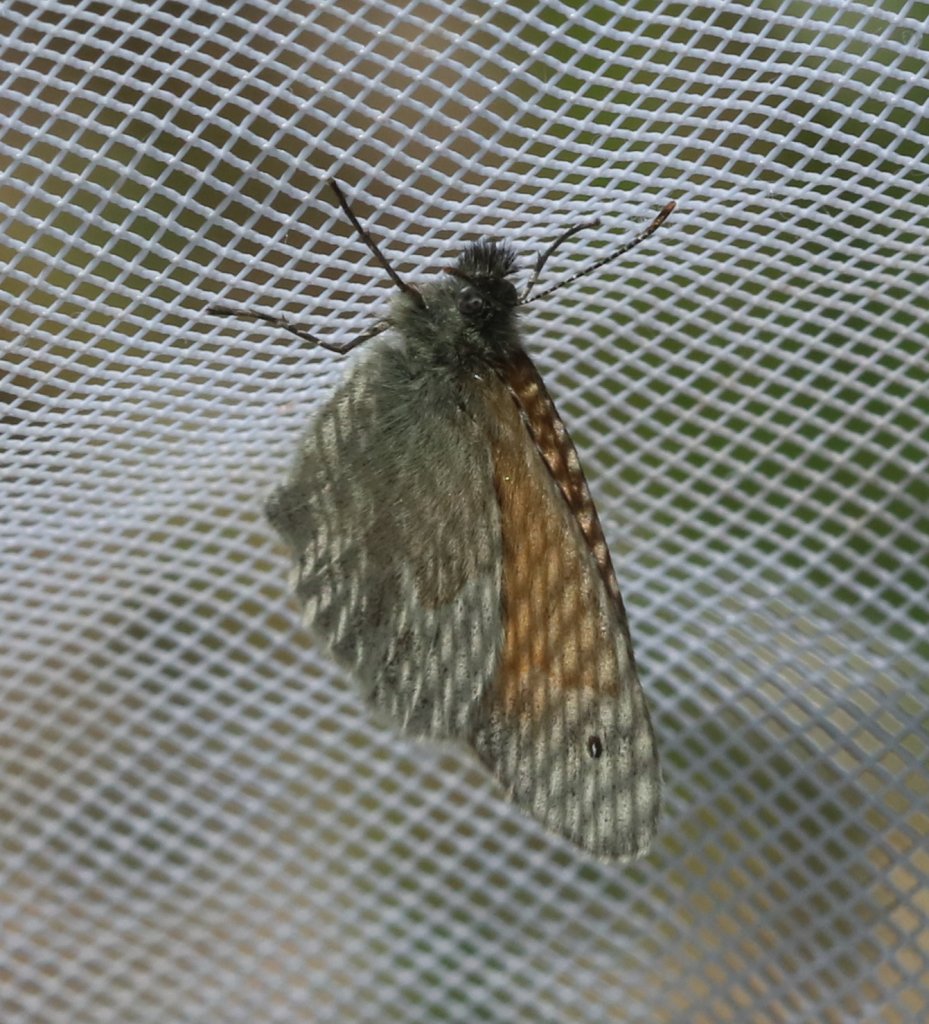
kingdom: Animalia
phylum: Arthropoda
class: Insecta
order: Lepidoptera
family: Nymphalidae
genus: Coenonympha
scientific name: Coenonympha tullia
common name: Large Heath
